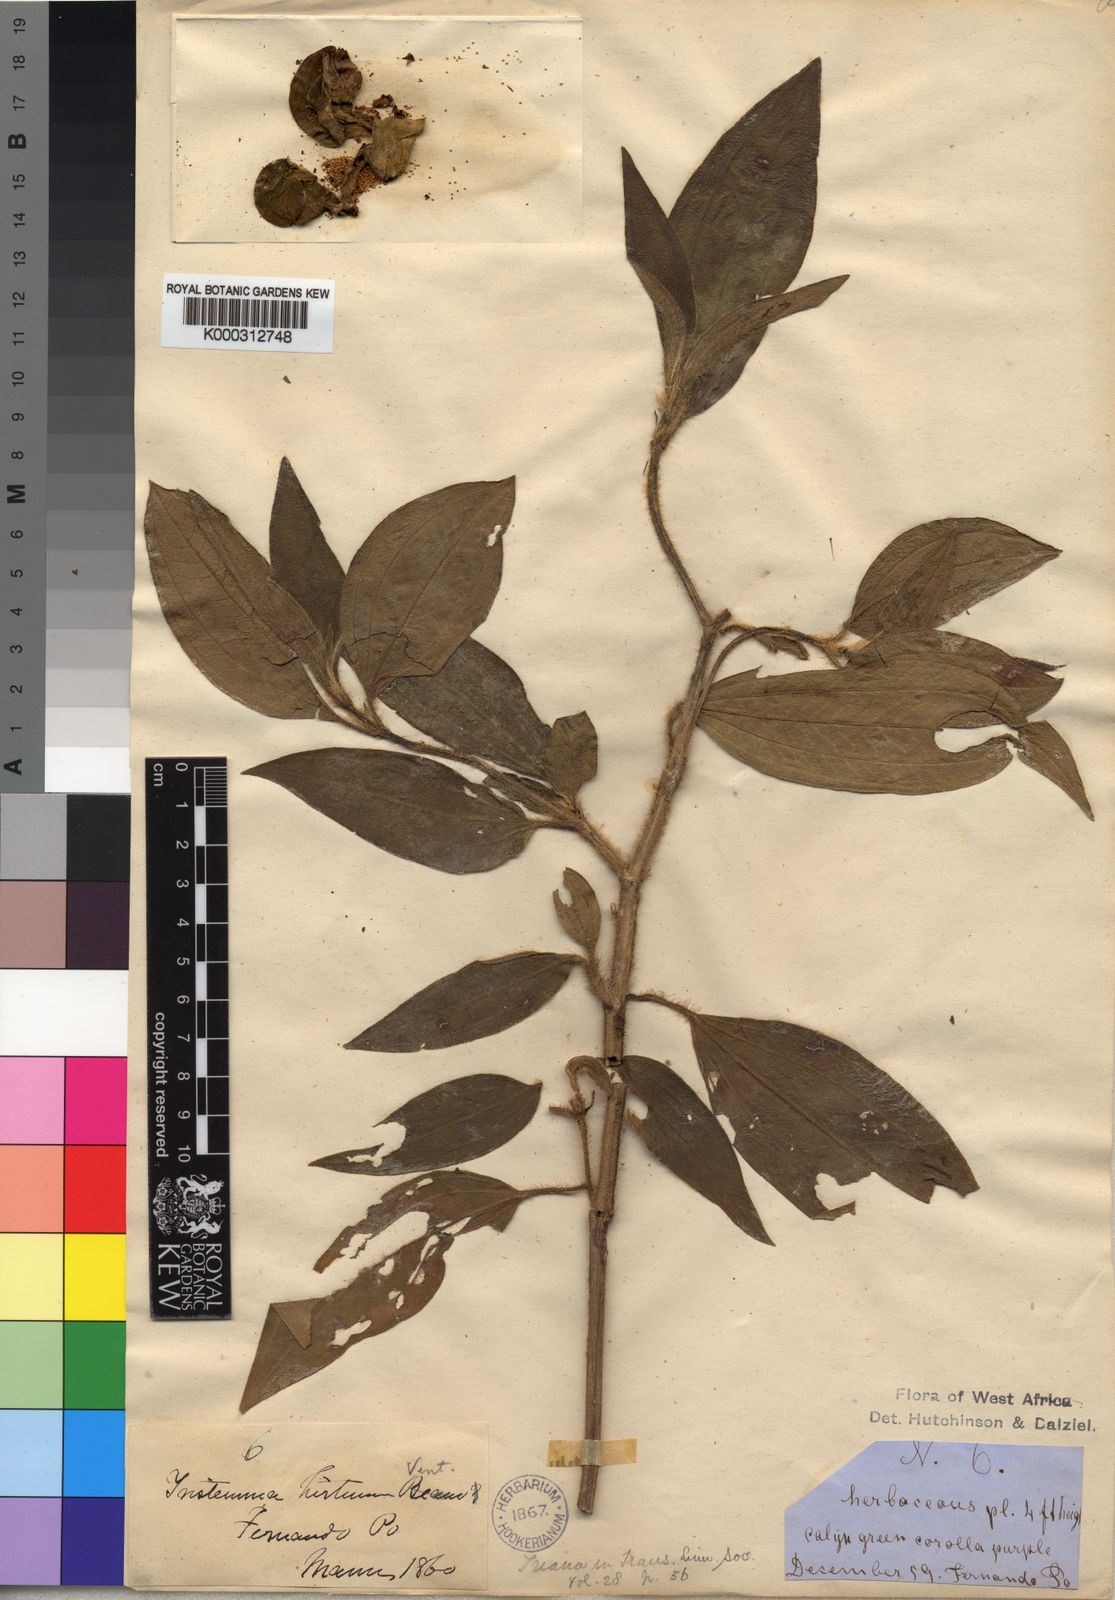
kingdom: Plantae
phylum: Tracheophyta
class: Magnoliopsida
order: Myrtales
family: Melastomataceae
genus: Tristemma
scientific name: Tristemma hirtum
